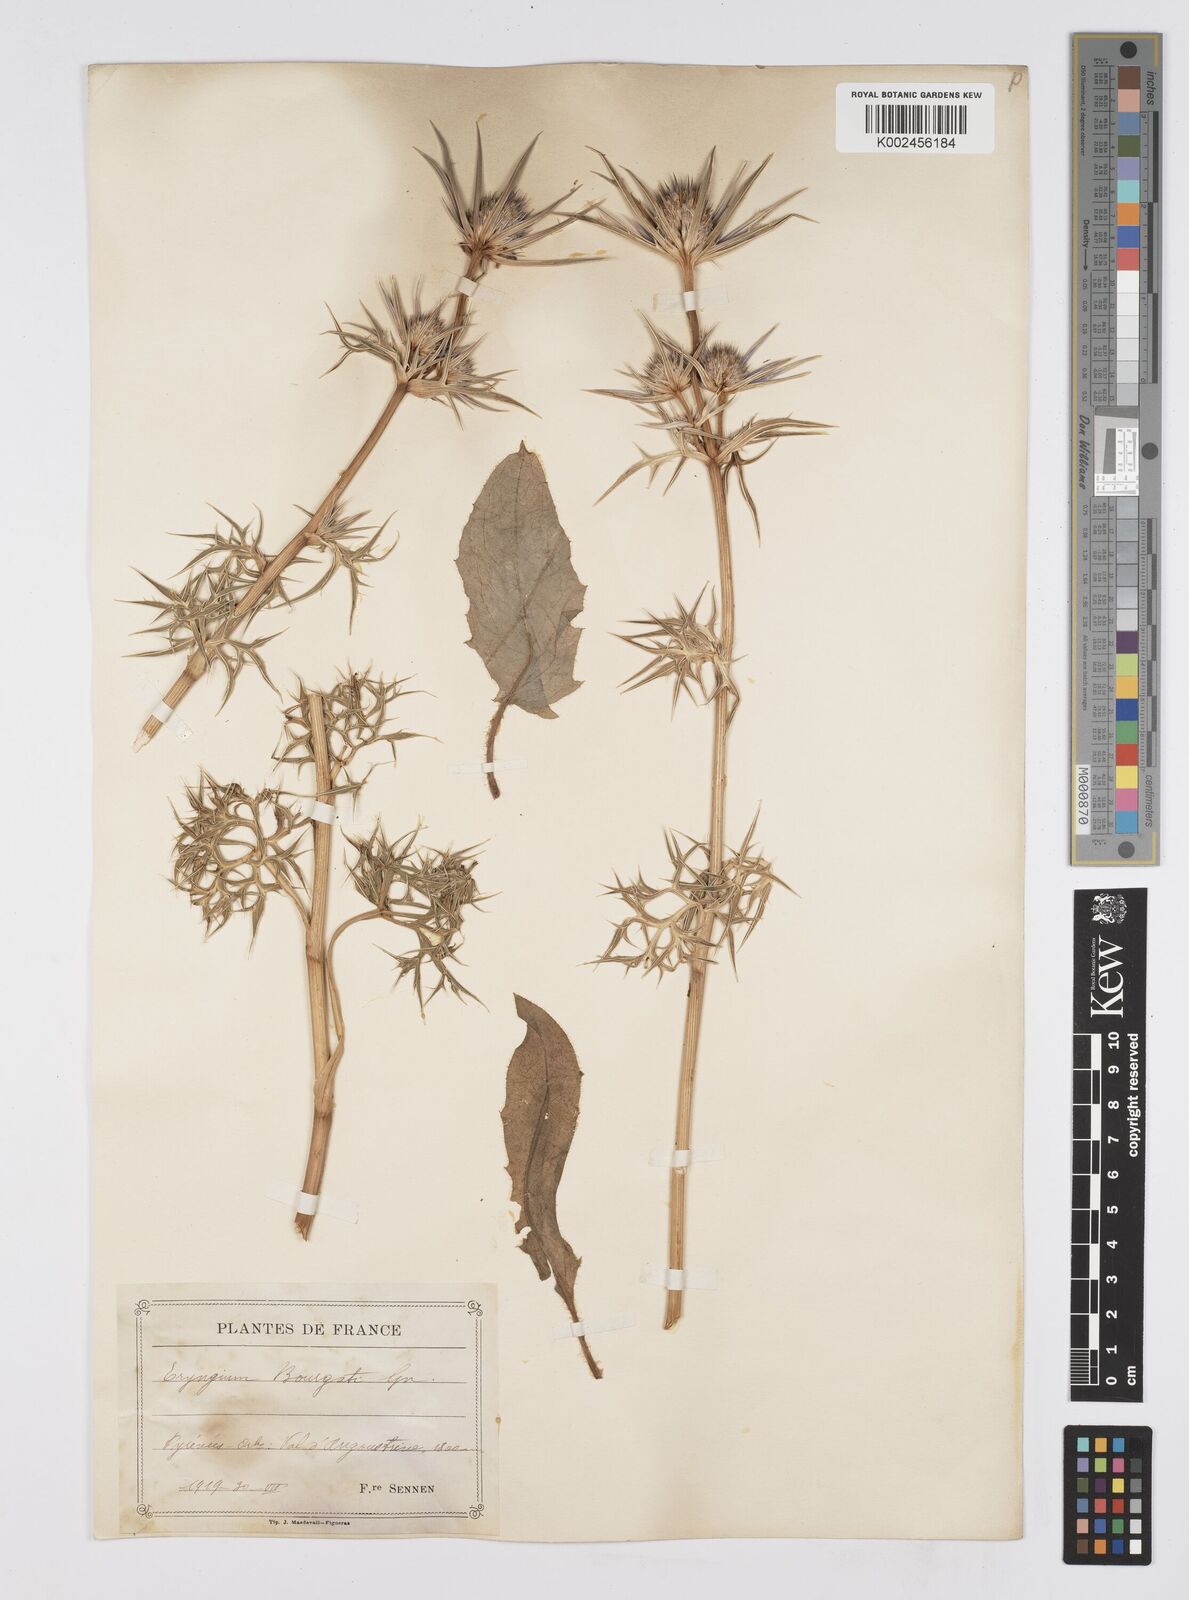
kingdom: Plantae
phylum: Tracheophyta
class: Magnoliopsida
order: Apiales
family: Apiaceae
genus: Eryngium
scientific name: Eryngium bourgatii
